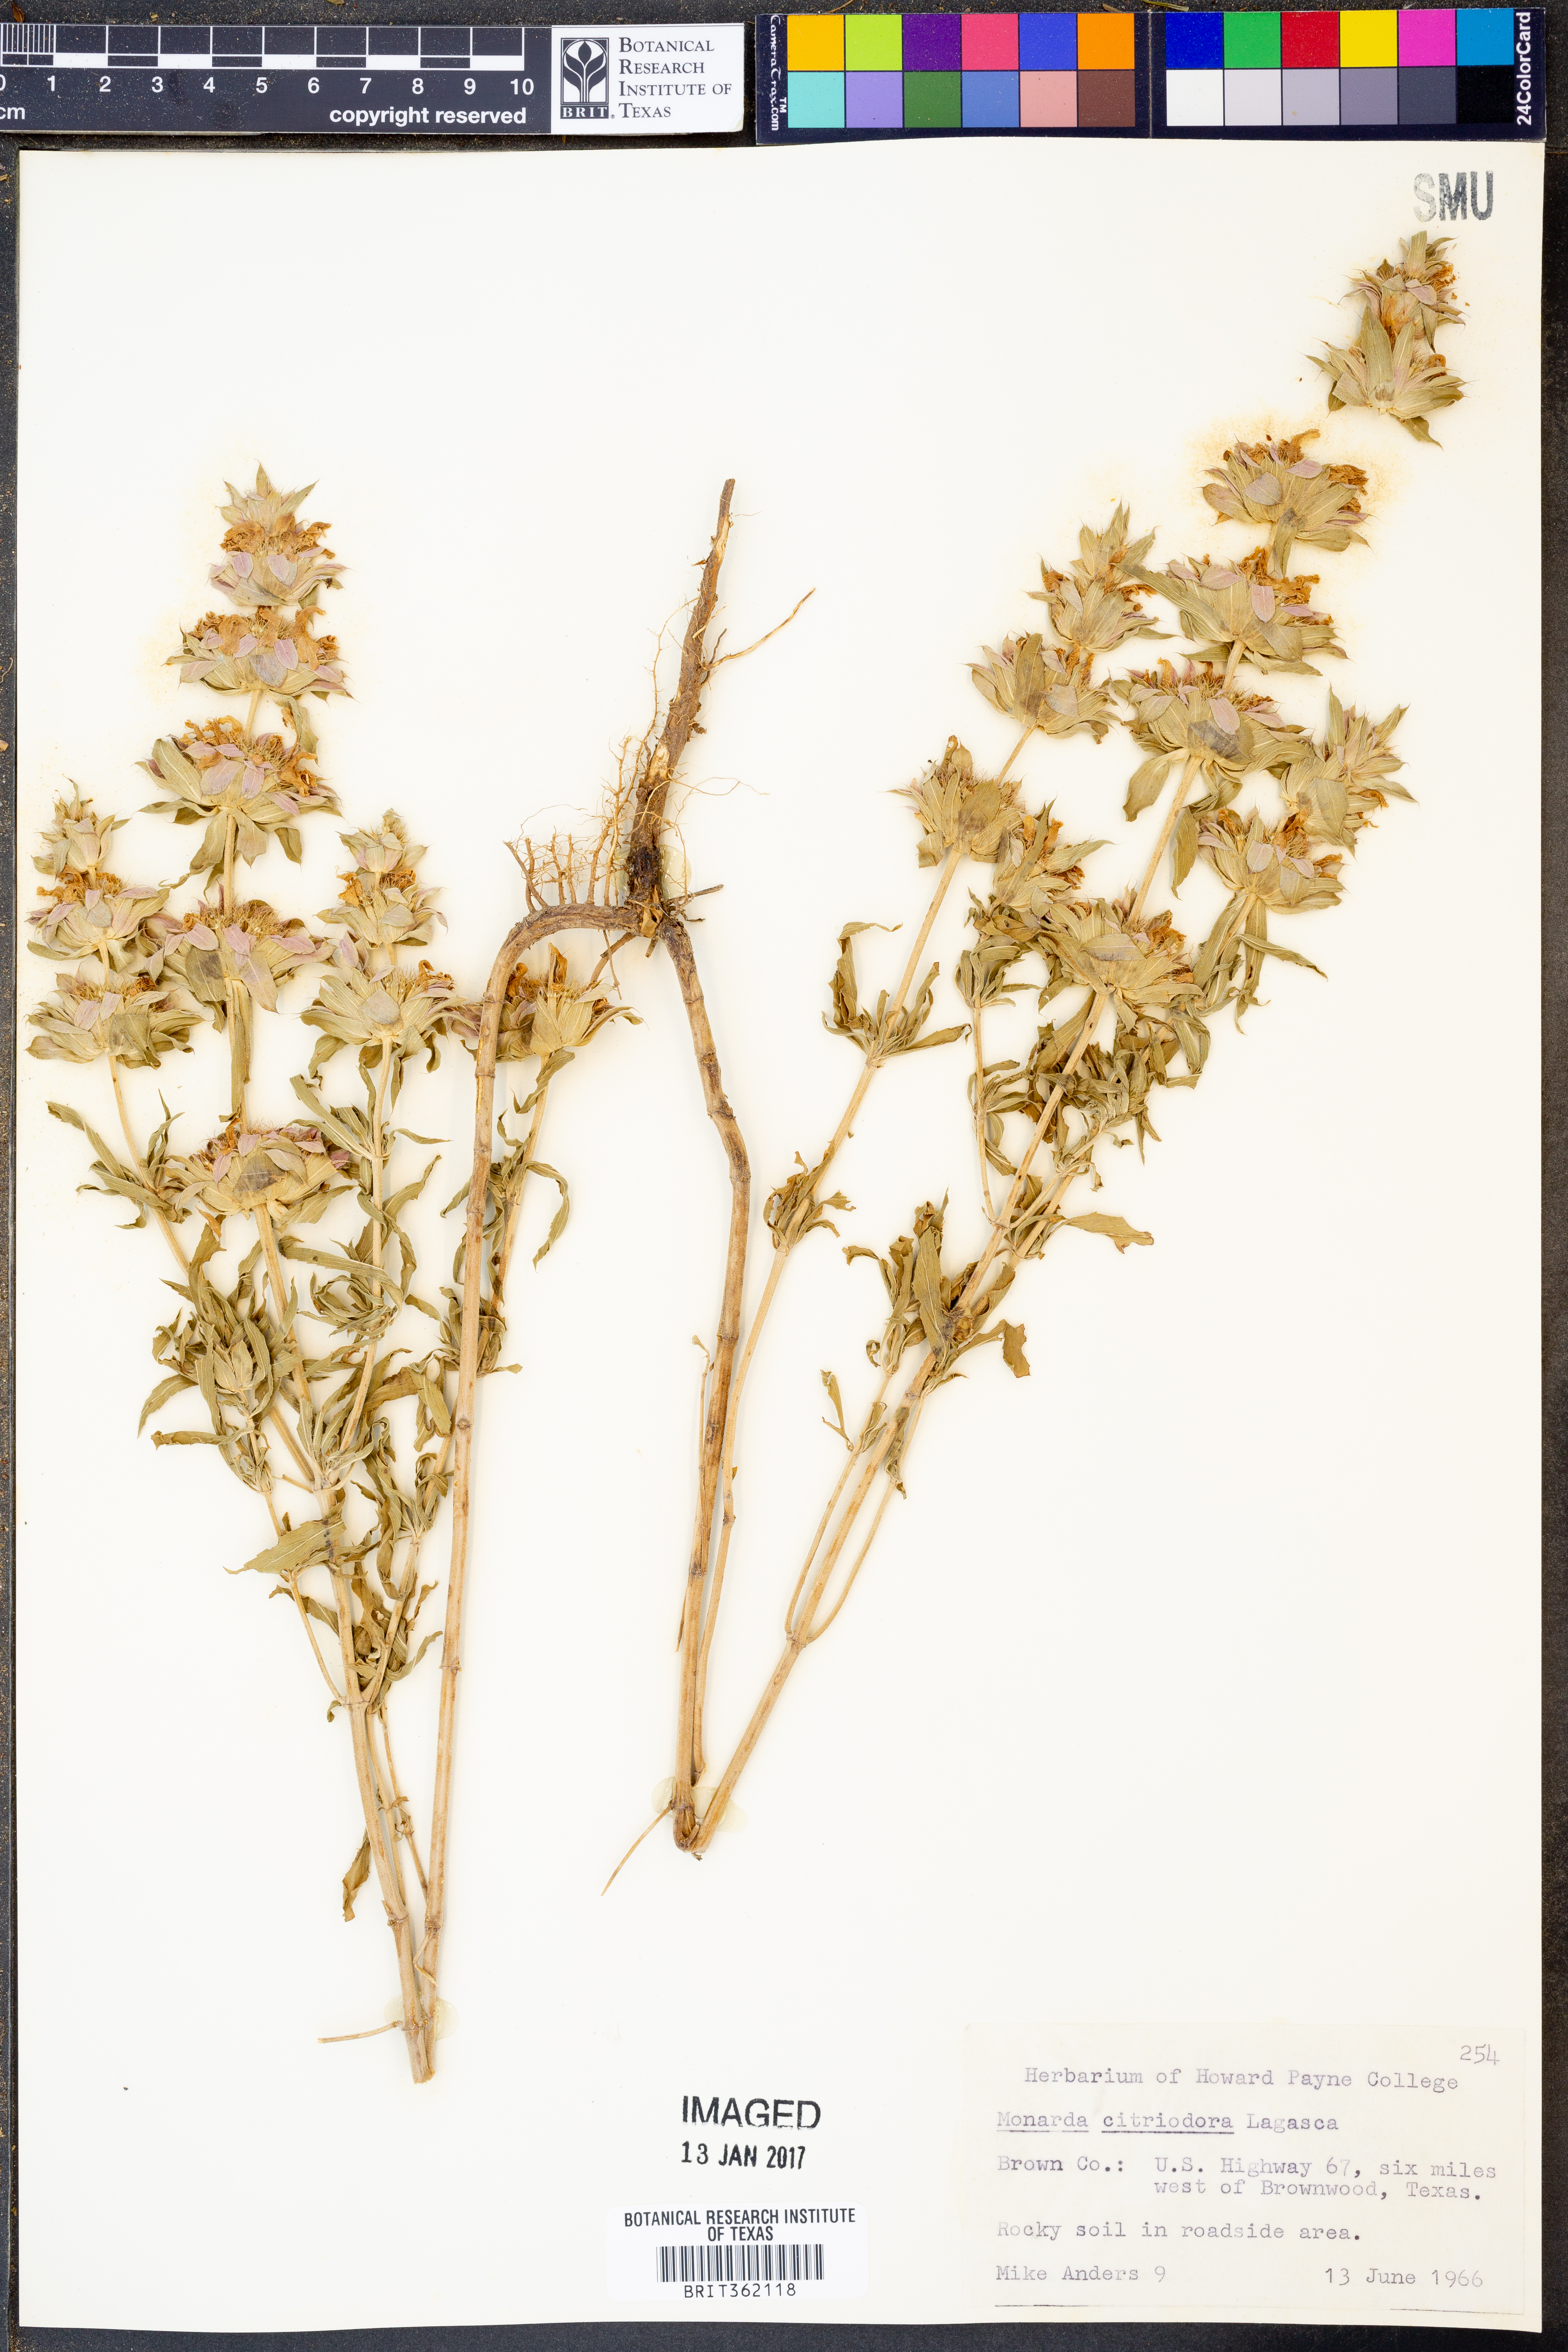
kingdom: Plantae
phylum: Tracheophyta
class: Magnoliopsida
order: Lamiales
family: Lamiaceae
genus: Monarda
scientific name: Monarda citriodora
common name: Lemon beebalm
